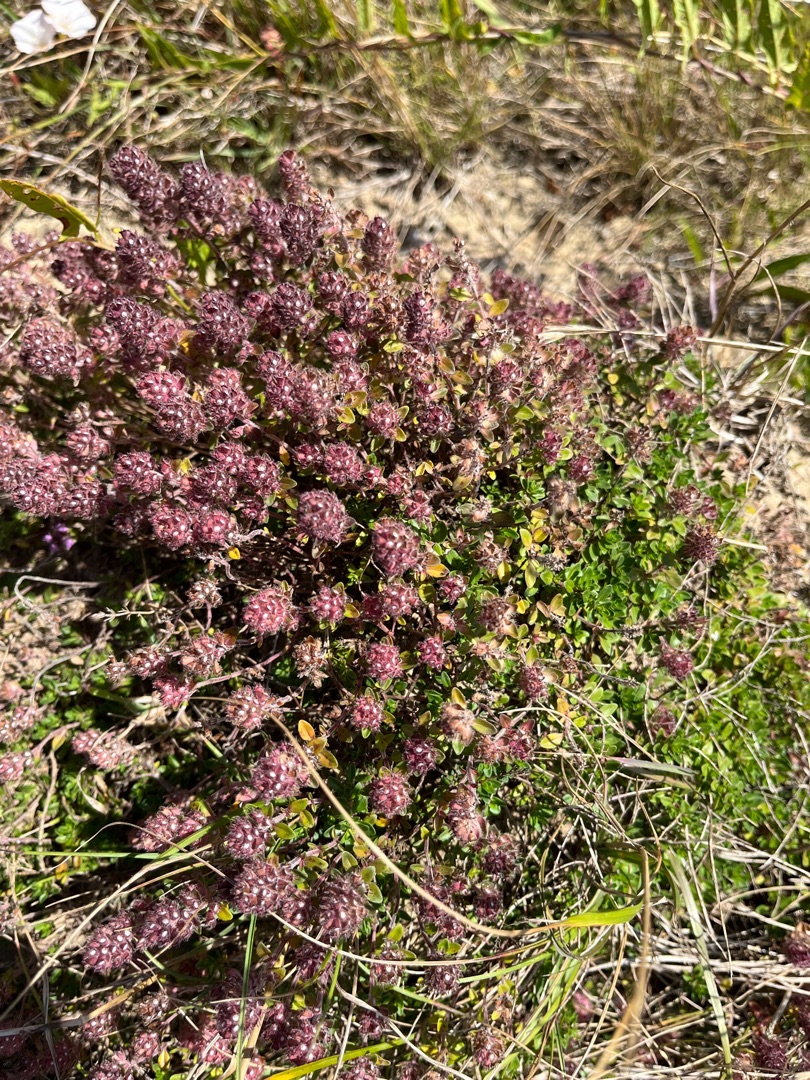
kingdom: Plantae
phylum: Tracheophyta
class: Magnoliopsida
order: Lamiales
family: Lamiaceae
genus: Thymus
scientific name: Thymus pulegioides
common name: Bredbladet timian
